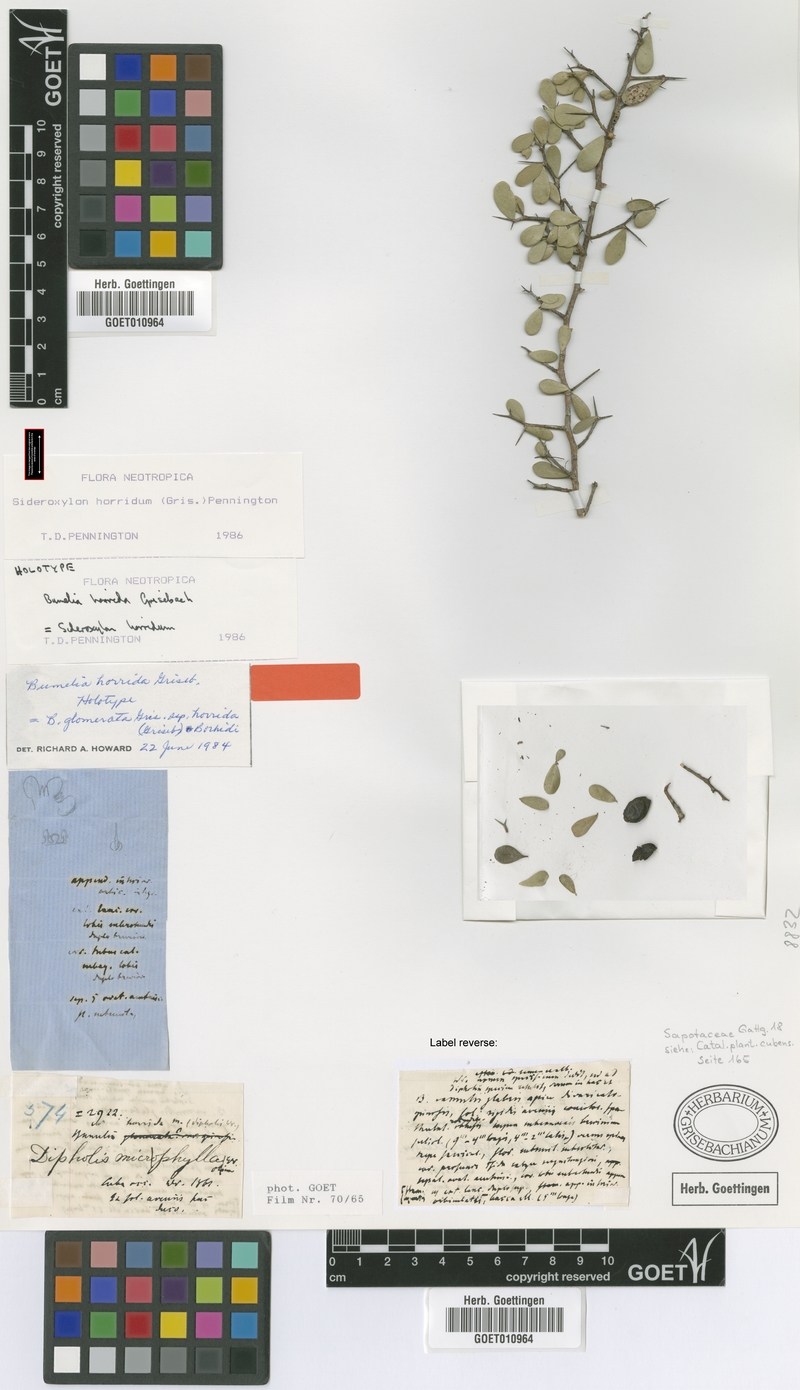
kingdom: Plantae
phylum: Tracheophyta
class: Magnoliopsida
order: Ericales
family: Sapotaceae
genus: Sideroxylon
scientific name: Sideroxylon horridum
